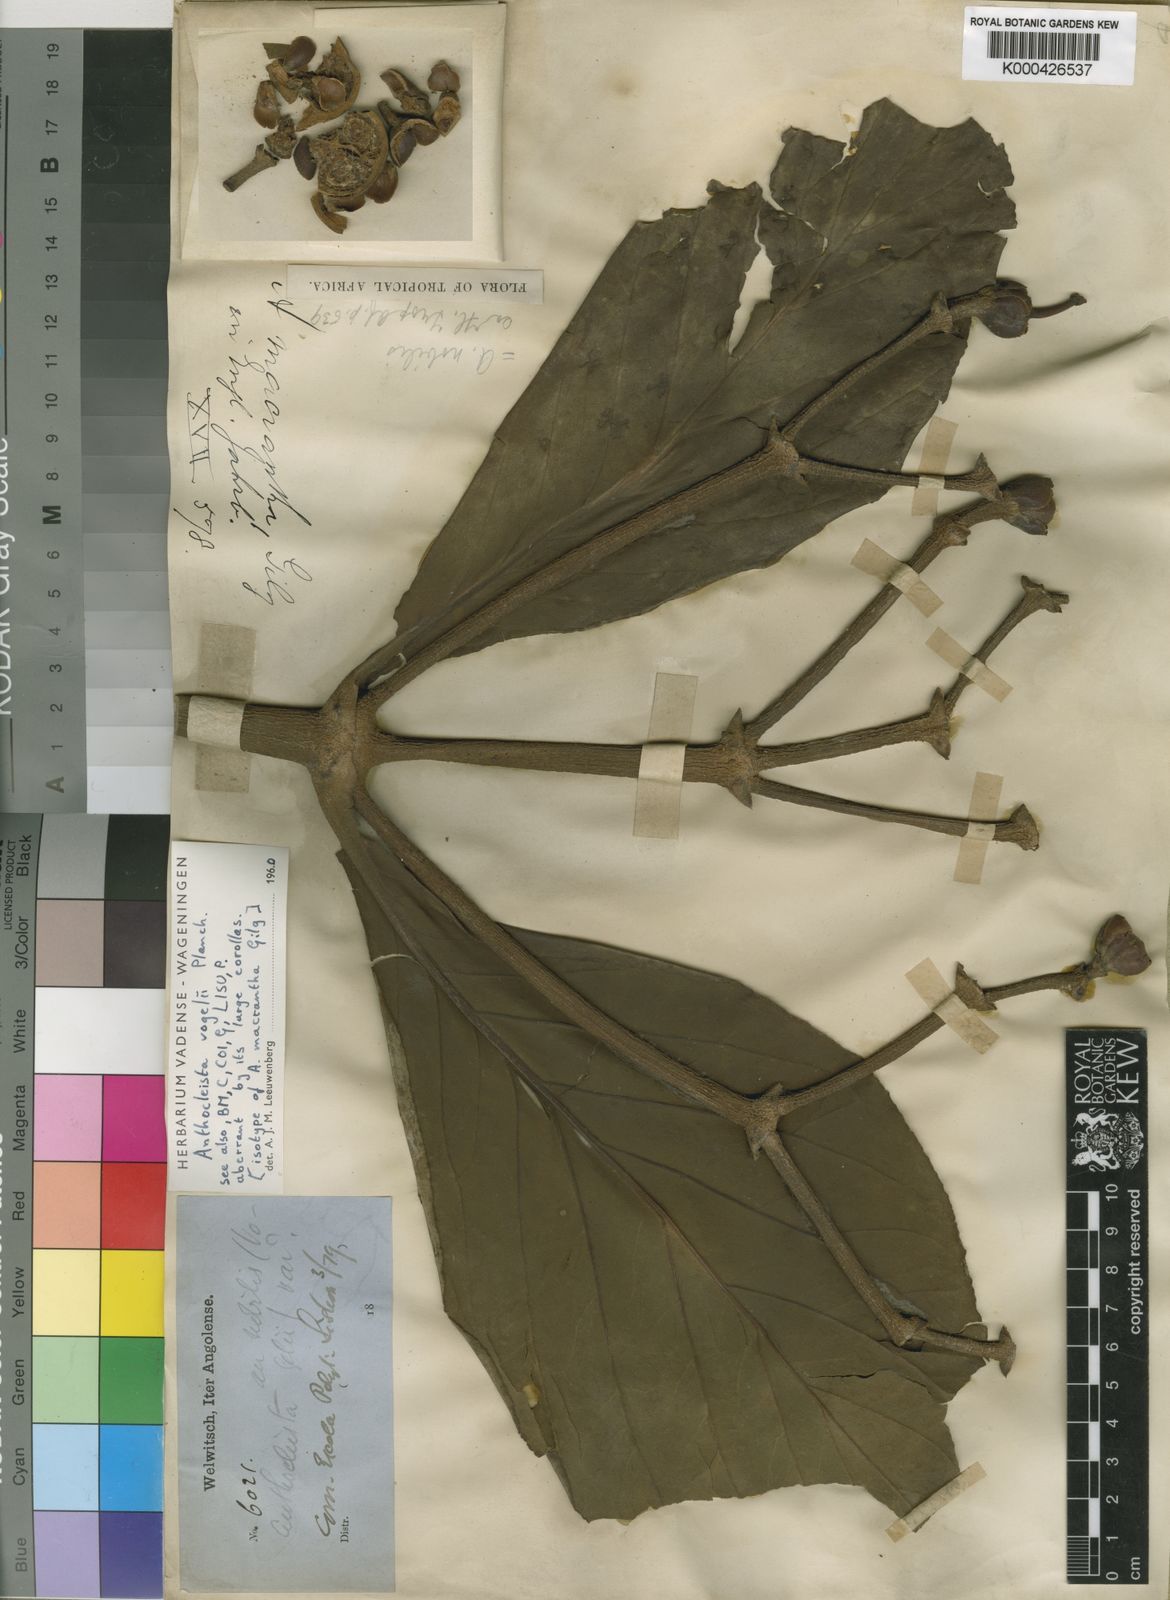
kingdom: Plantae
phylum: Tracheophyta
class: Magnoliopsida
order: Gentianales
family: Gentianaceae
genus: Anthocleista
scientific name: Anthocleista vogelii
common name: Cabbage tree
